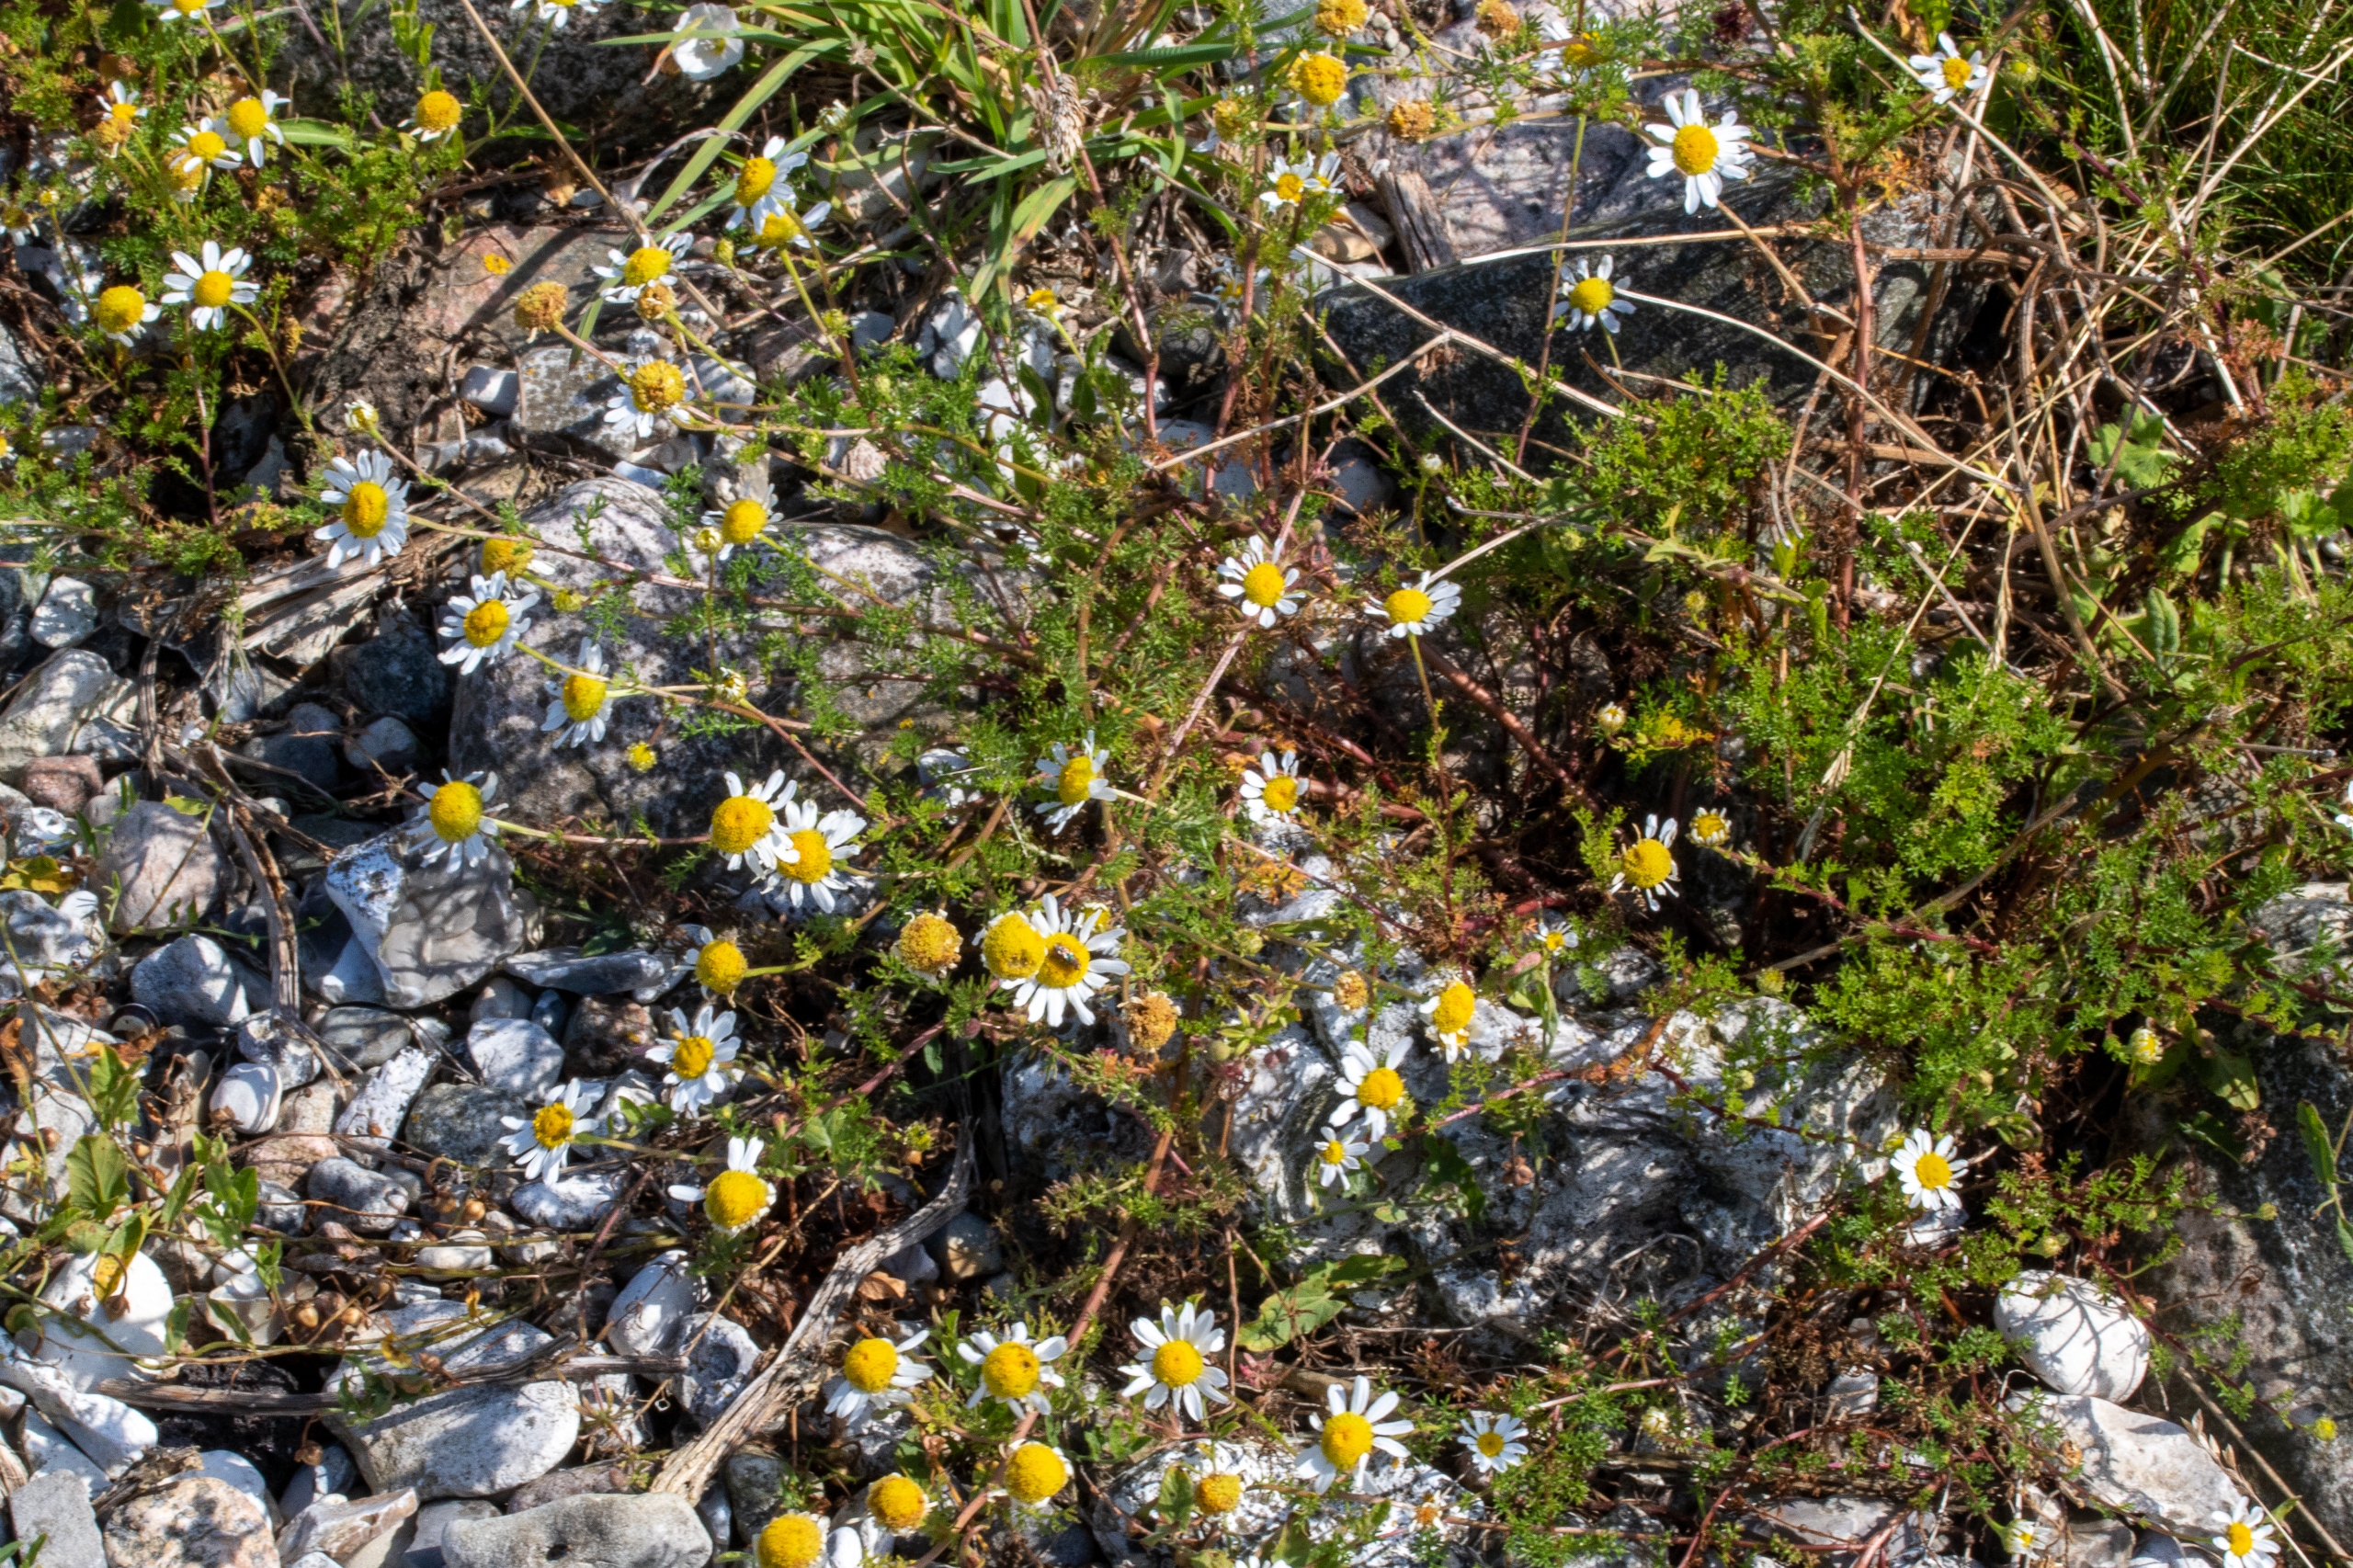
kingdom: Plantae
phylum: Tracheophyta
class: Magnoliopsida
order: Asterales
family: Asteraceae
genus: Tripleurospermum
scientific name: Tripleurospermum maritimum
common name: Strand-kamille
